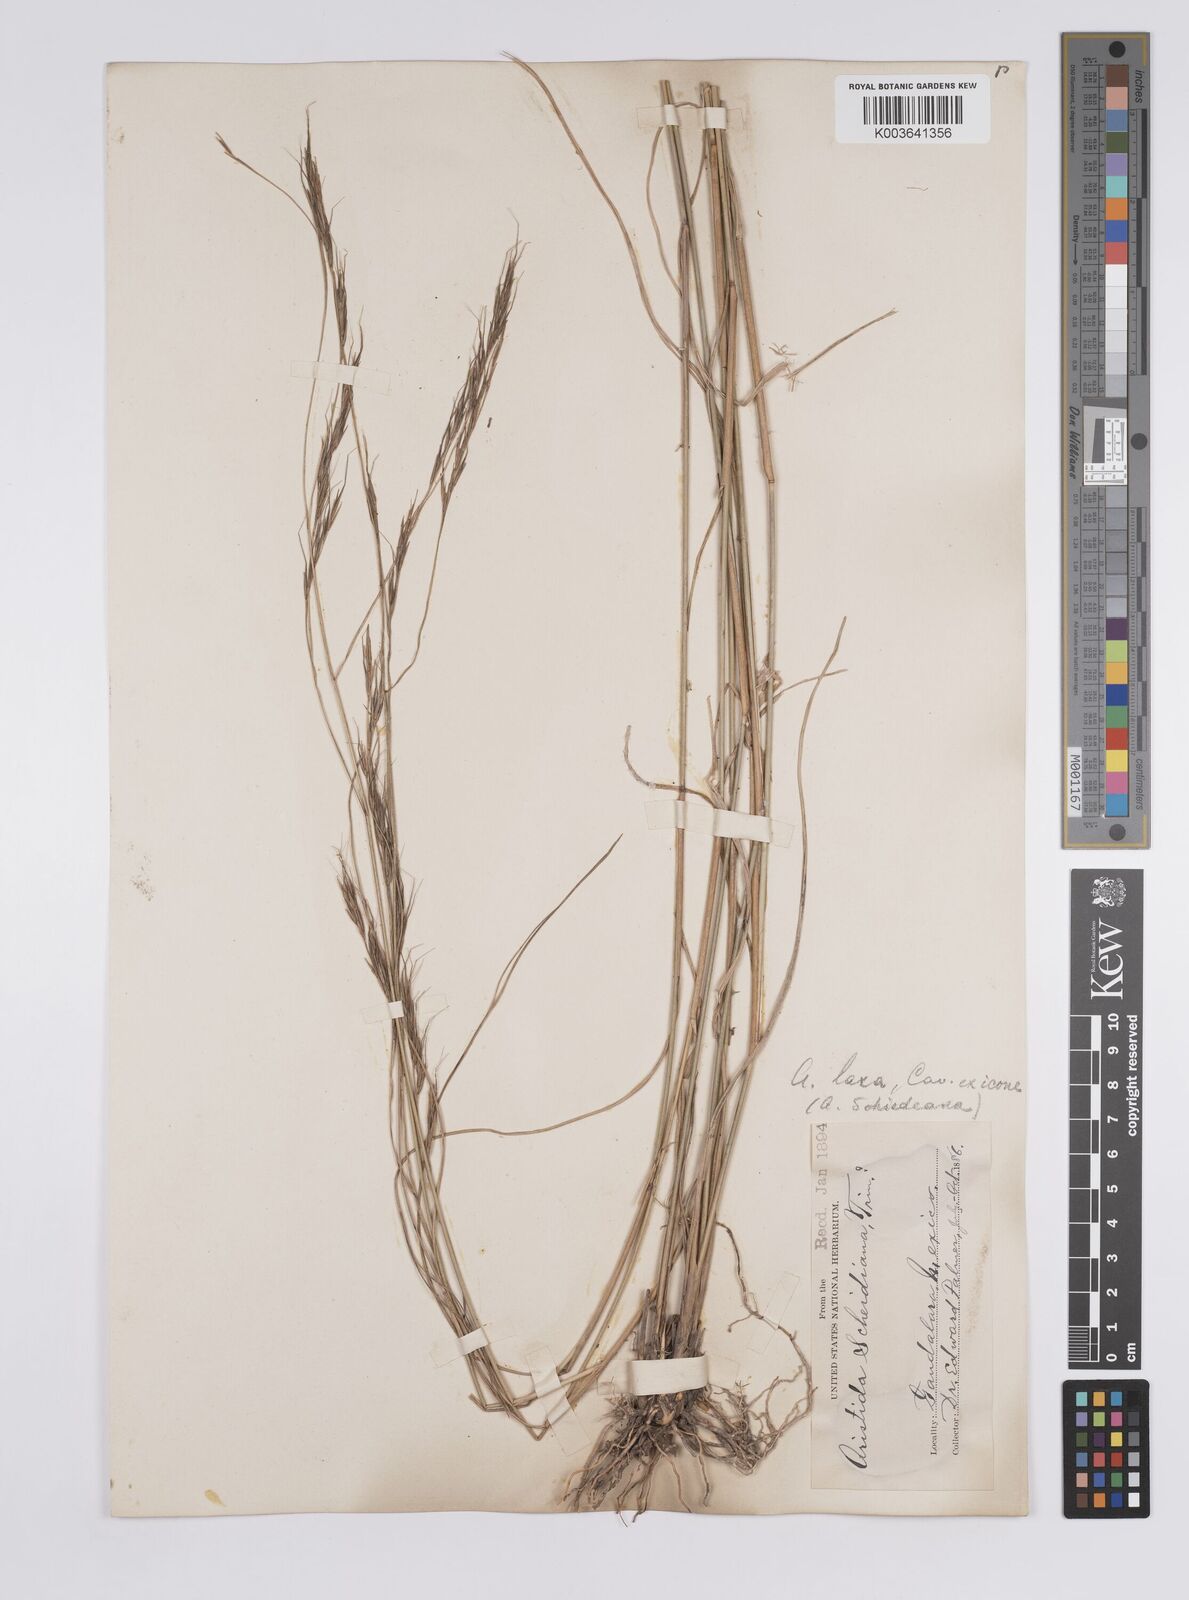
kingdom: Plantae
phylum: Tracheophyta
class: Liliopsida
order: Poales
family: Poaceae
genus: Aristida
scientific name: Aristida divaricata
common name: Poverty grass
